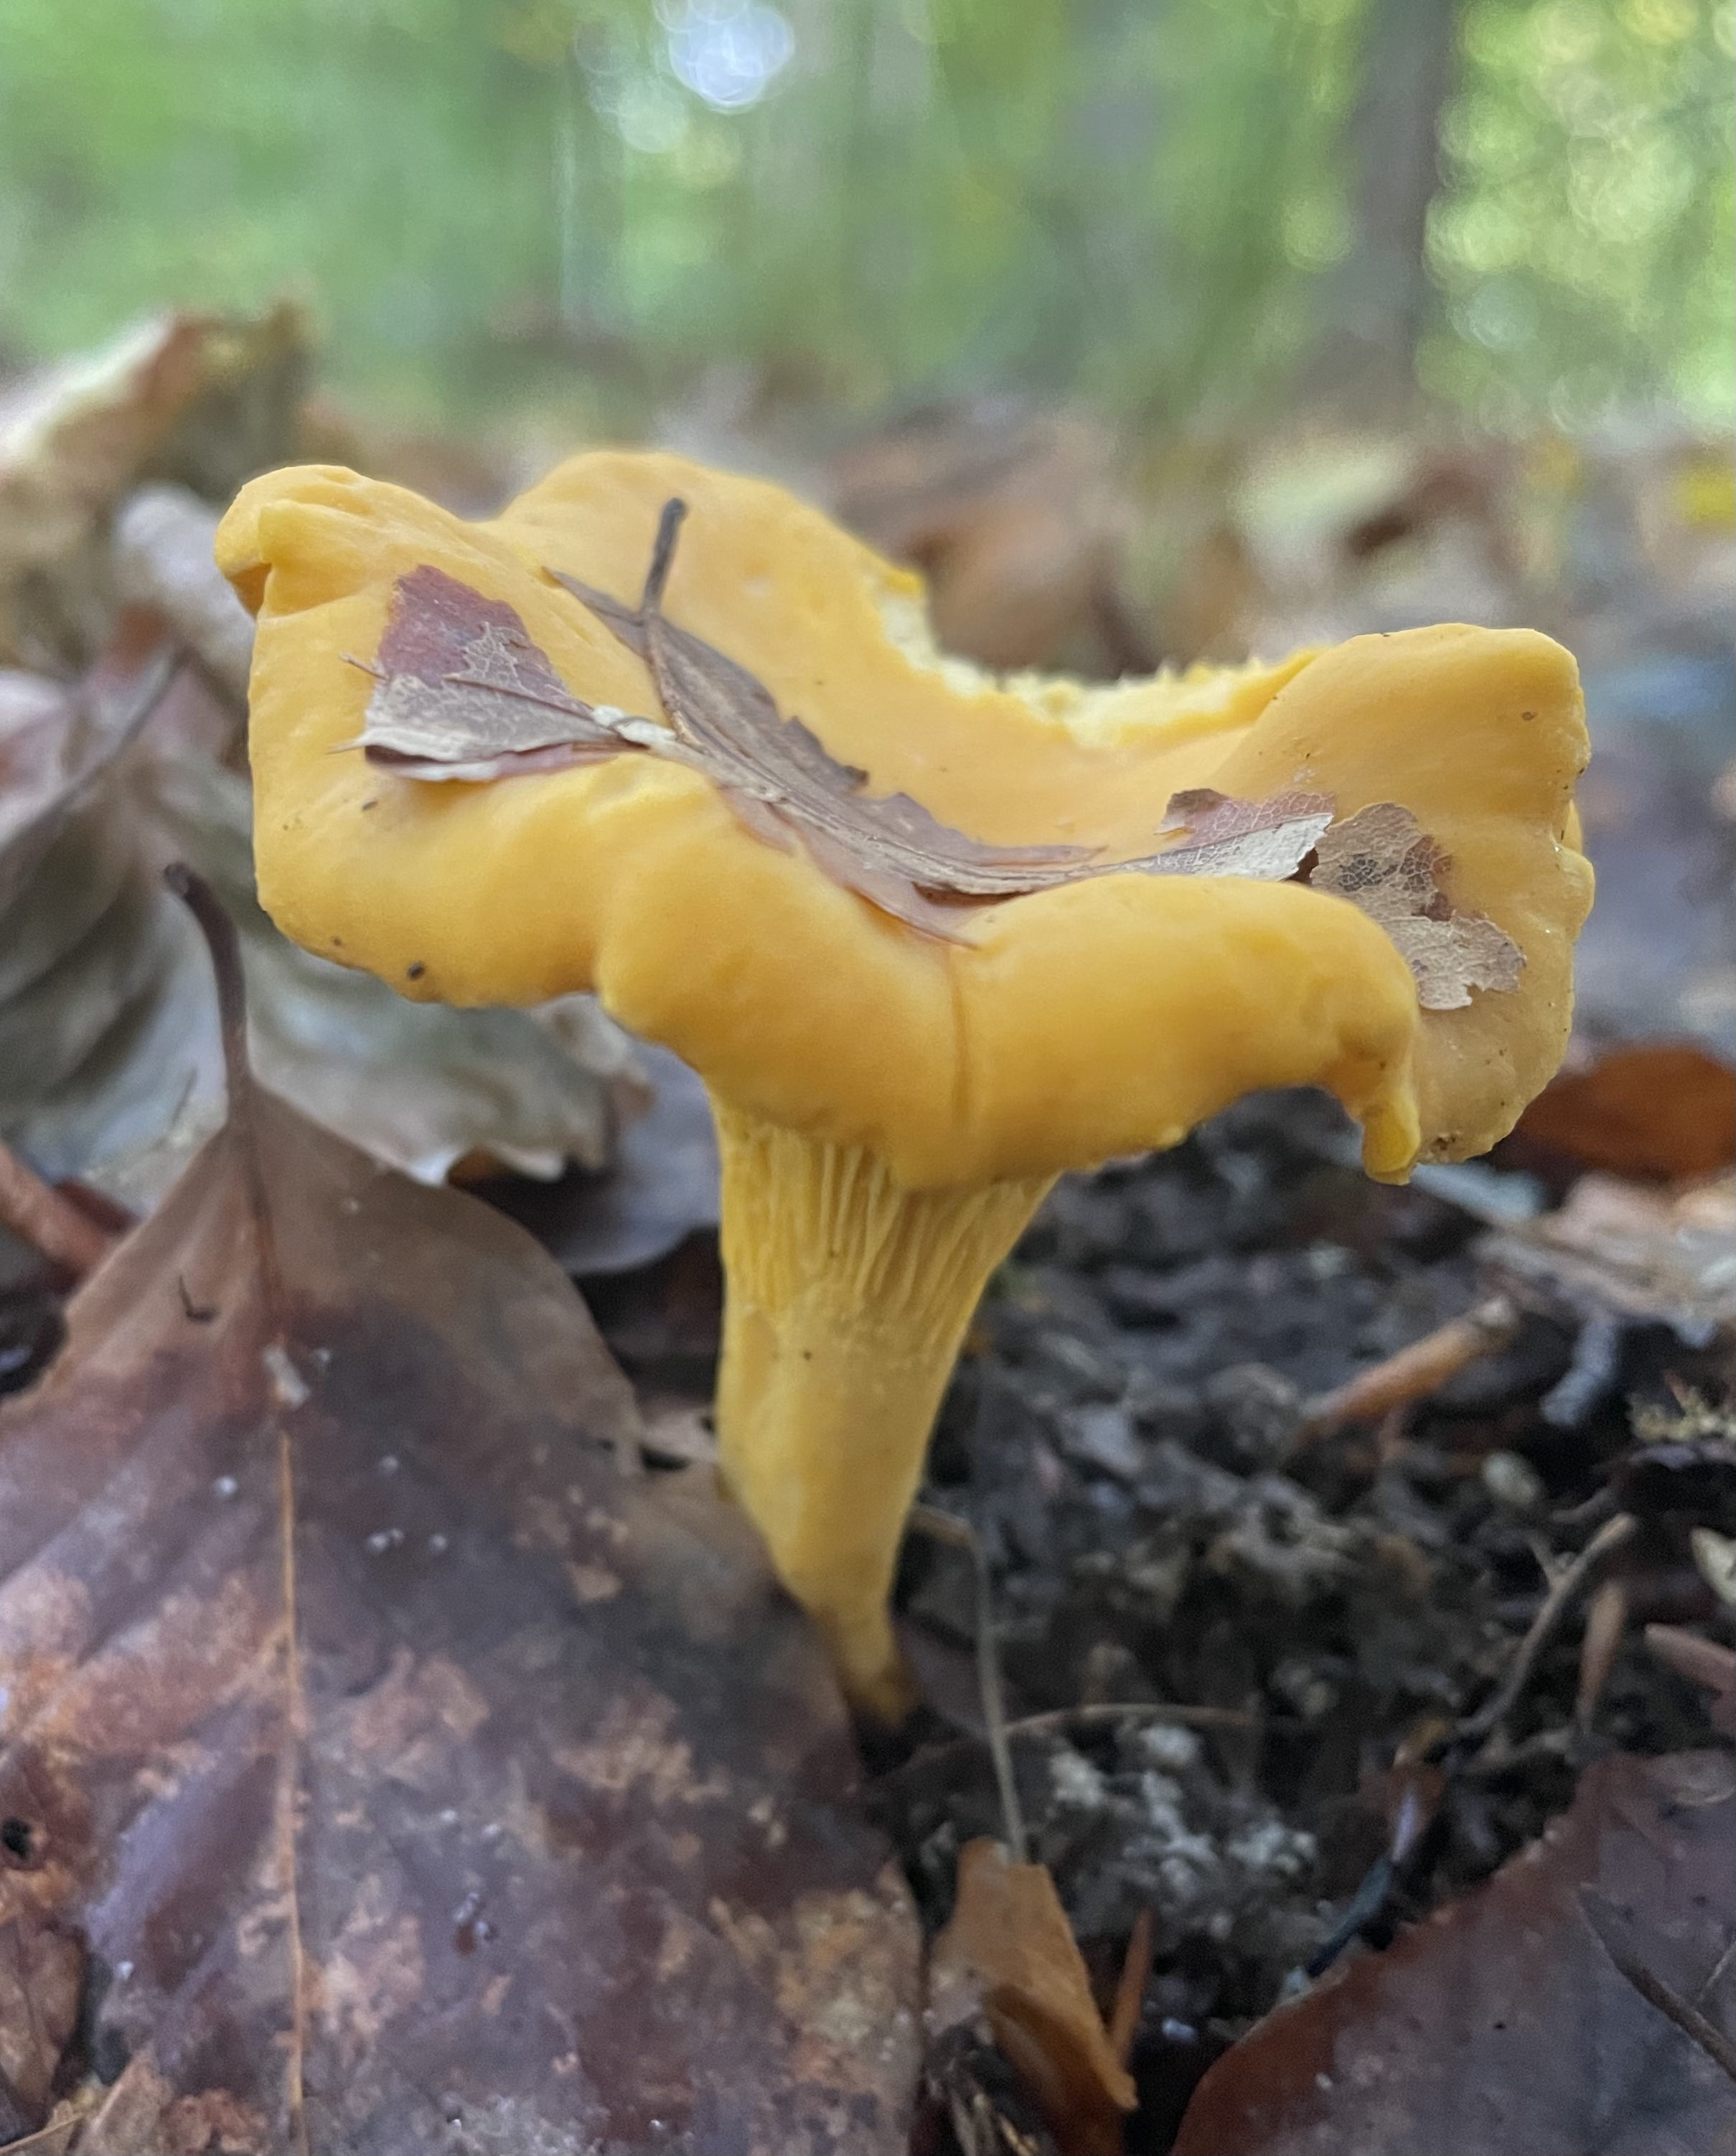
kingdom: Fungi
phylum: Basidiomycota
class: Agaricomycetes
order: Cantharellales
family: Hydnaceae
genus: Cantharellus
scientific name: Cantharellus pallens
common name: bleg kantarel
